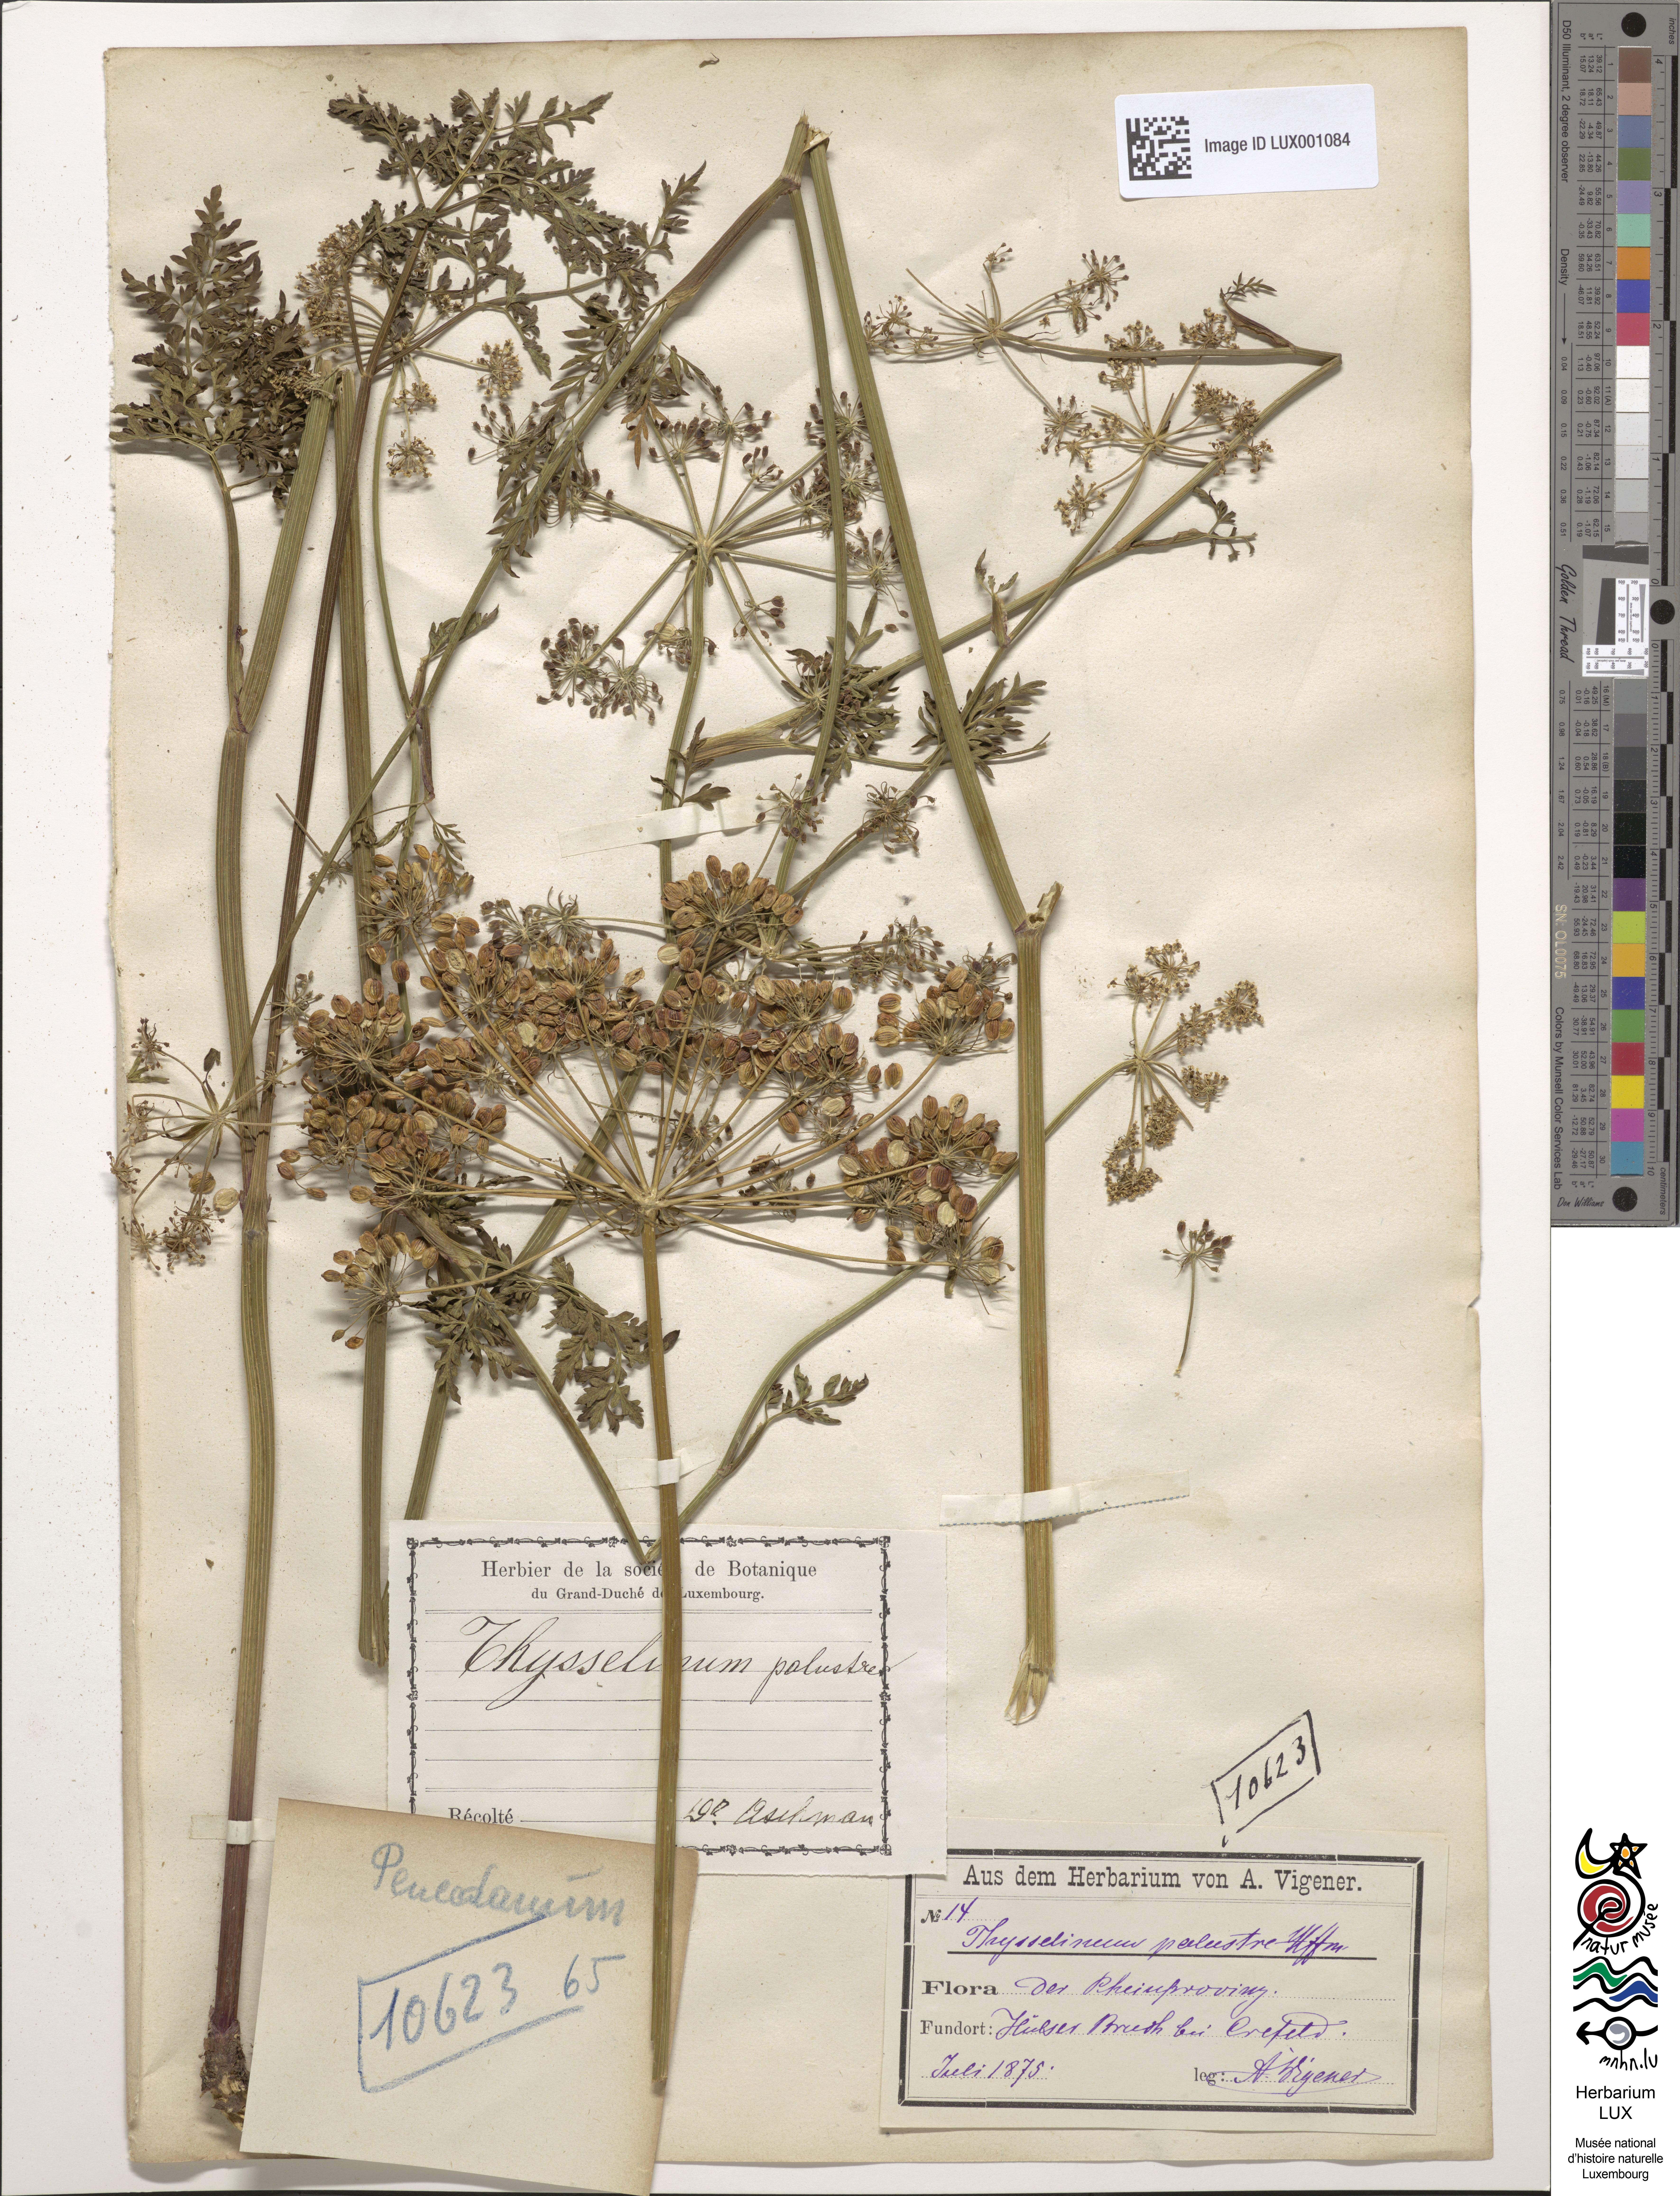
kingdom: Plantae
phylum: Tracheophyta
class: Magnoliopsida
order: Apiales
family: Apiaceae
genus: Thysselinum
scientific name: Thysselinum palustre
